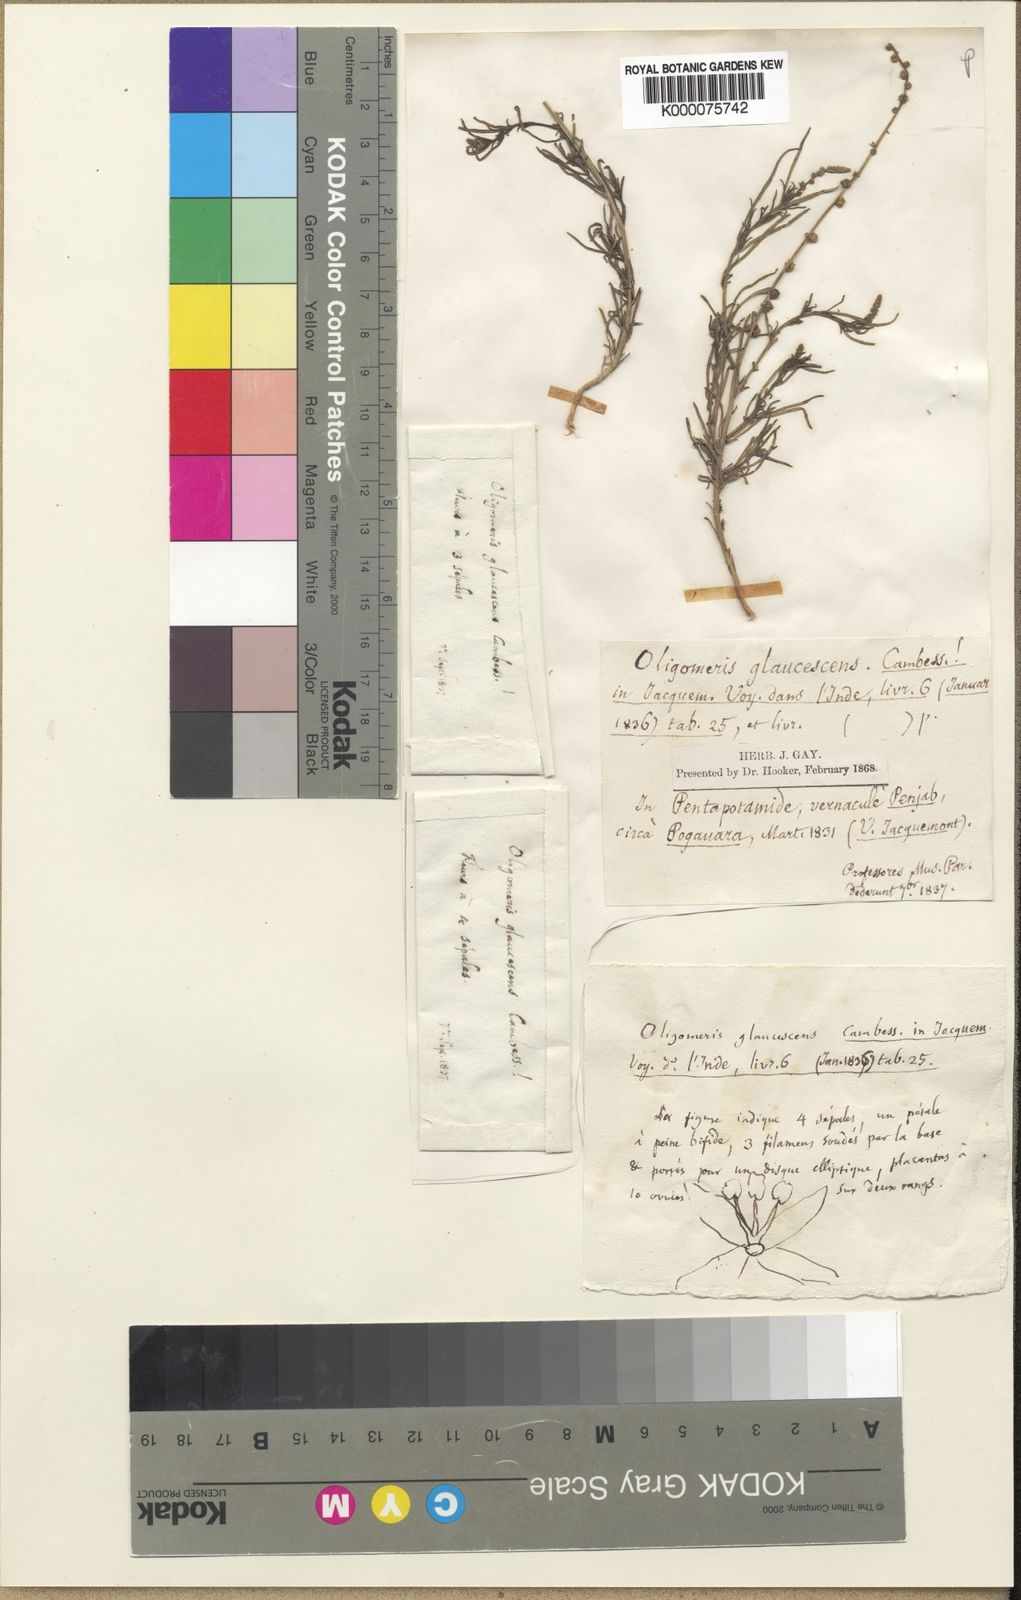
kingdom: Plantae
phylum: Tracheophyta
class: Magnoliopsida
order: Brassicales
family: Resedaceae
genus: Oligomeris
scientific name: Oligomeris linifolia
